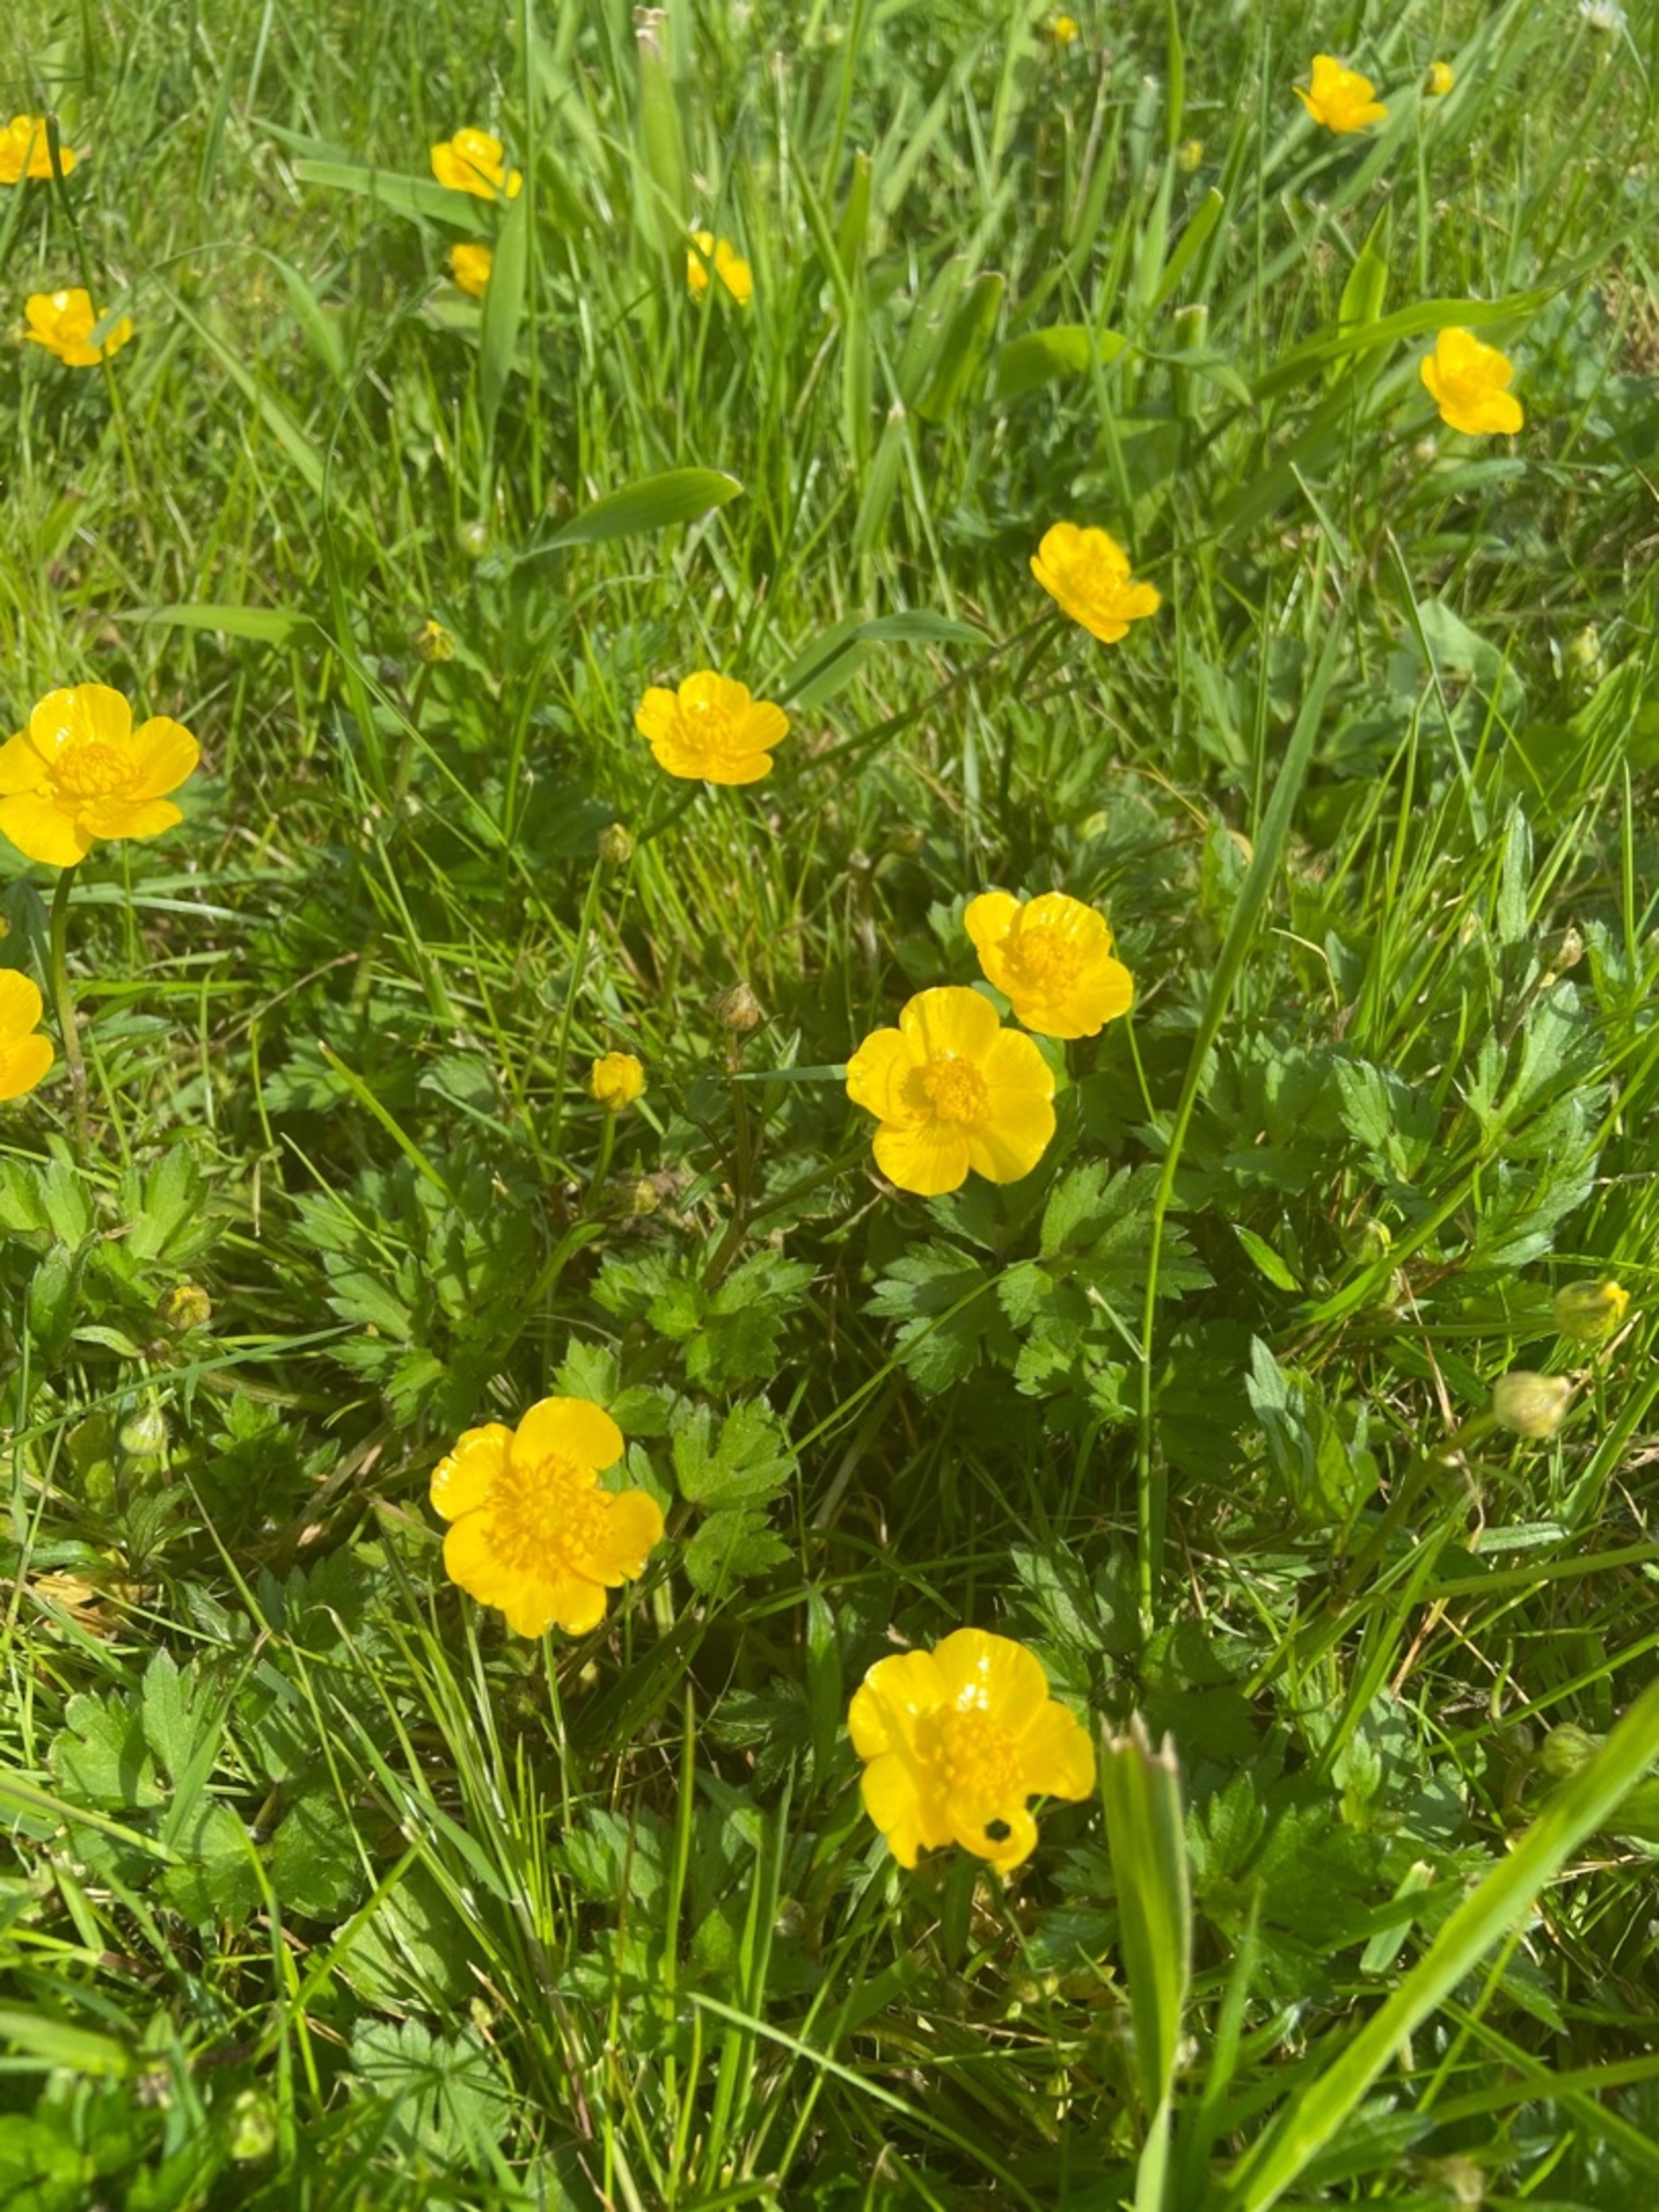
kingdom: Plantae
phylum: Tracheophyta
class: Magnoliopsida
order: Ranunculales
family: Ranunculaceae
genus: Ranunculus
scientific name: Ranunculus repens
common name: Lav ranunkel
